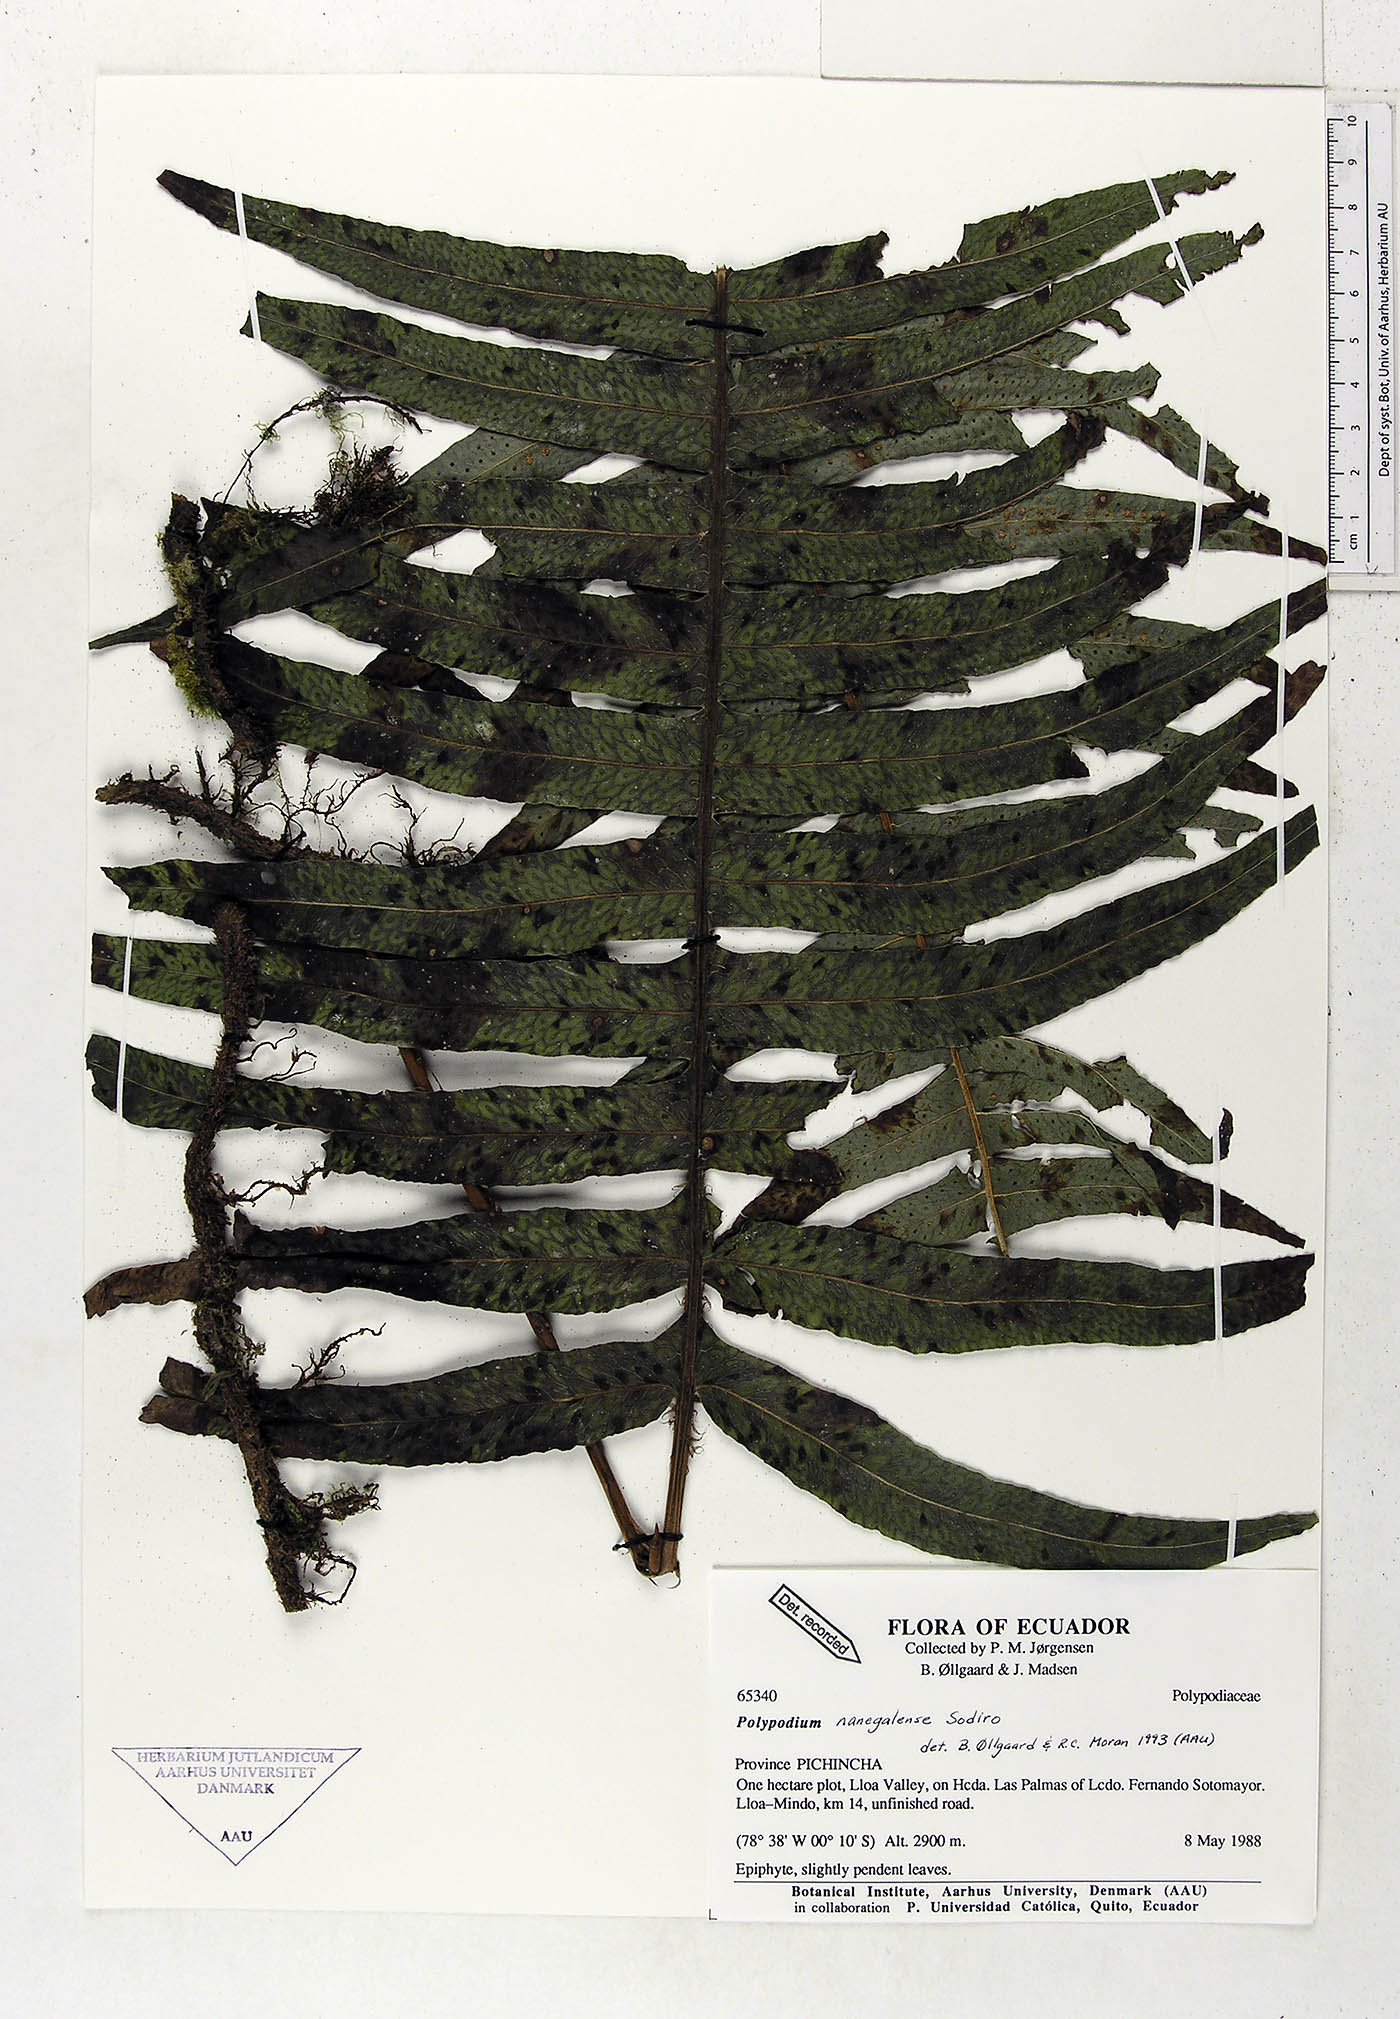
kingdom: Plantae
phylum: Tracheophyta
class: Polypodiopsida
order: Polypodiales
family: Polypodiaceae
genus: Serpocaulon
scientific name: Serpocaulon nanegalense
